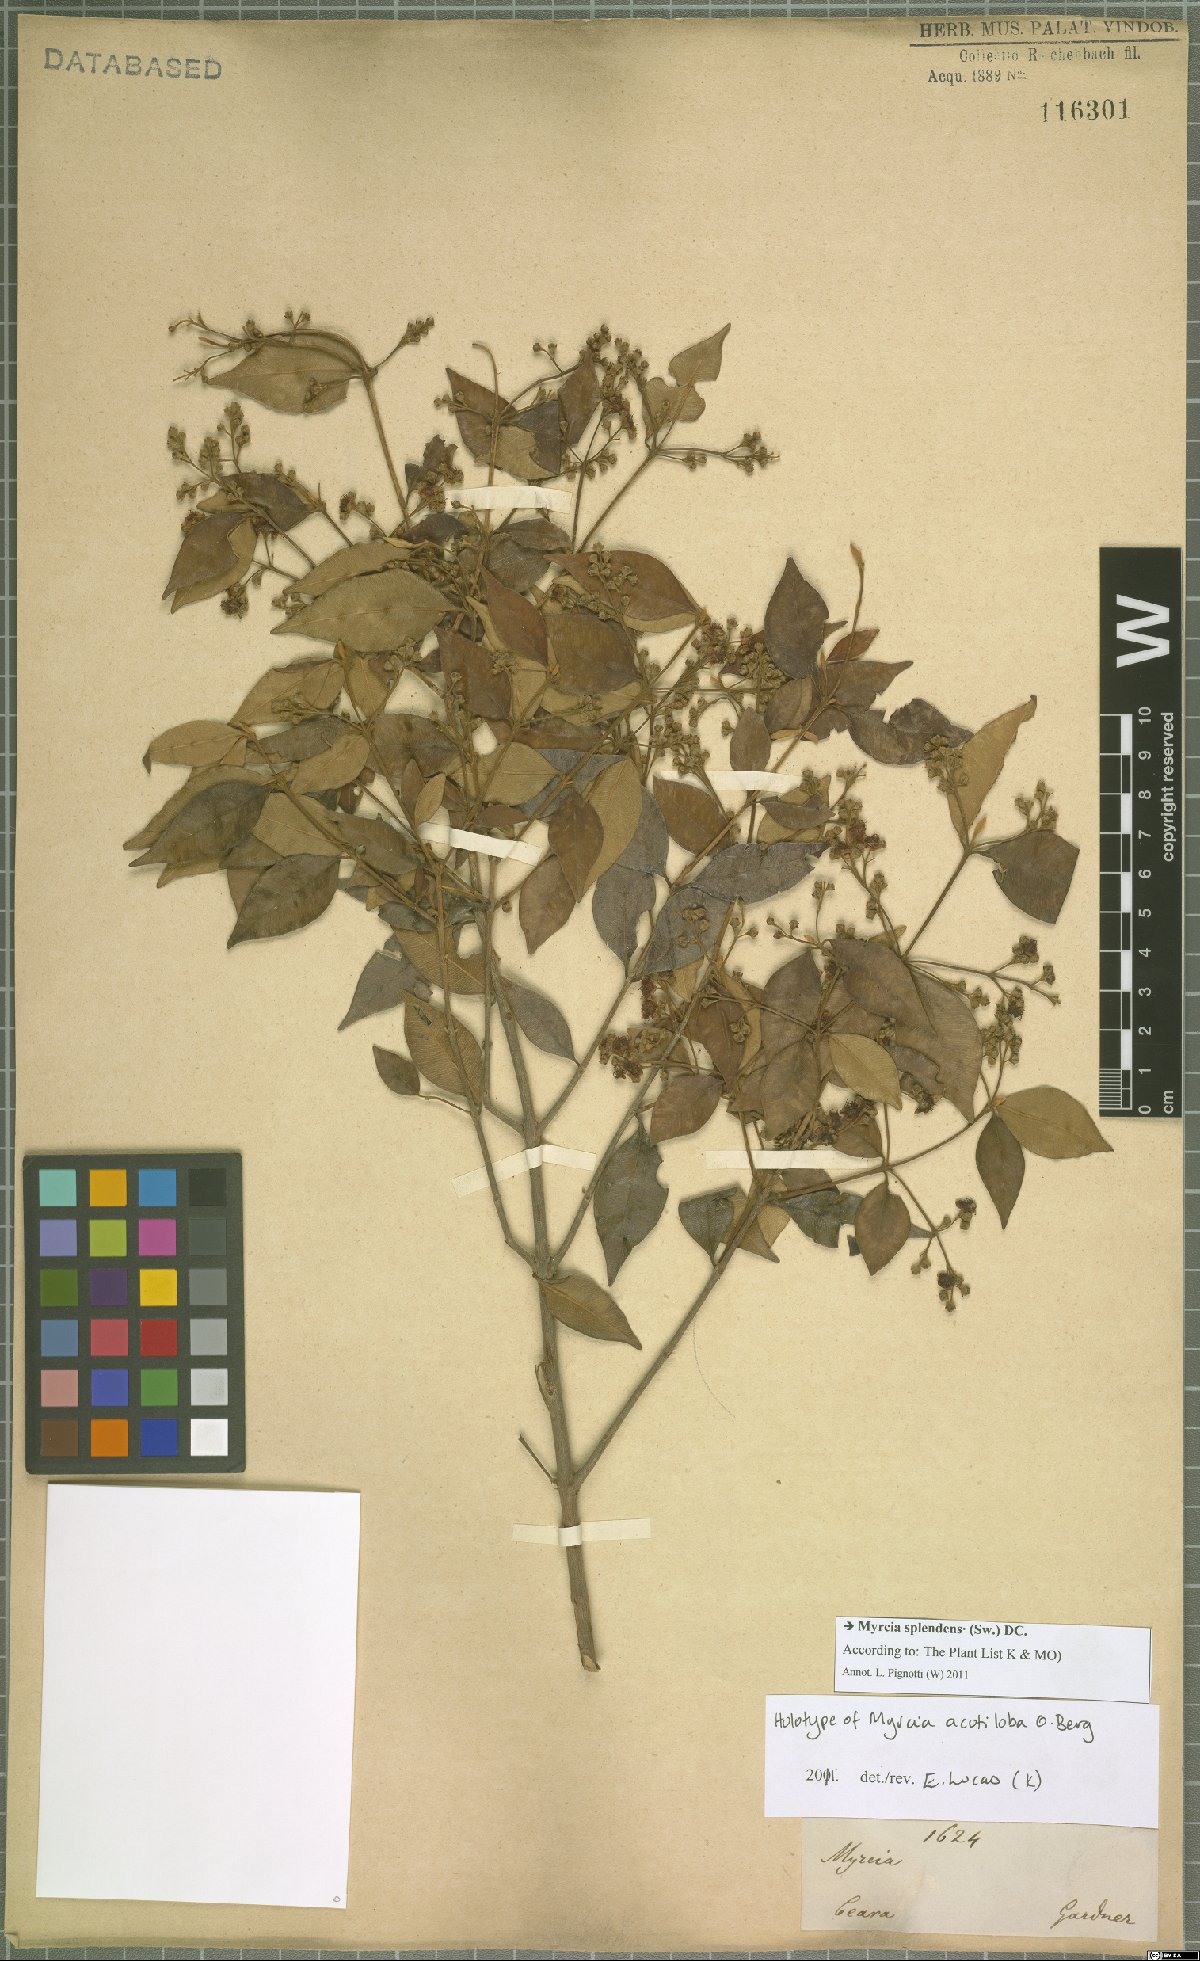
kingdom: Plantae
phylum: Tracheophyta
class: Magnoliopsida
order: Myrtales
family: Myrtaceae
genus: Myrcia
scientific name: Myrcia splendens
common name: Surinam cherry
